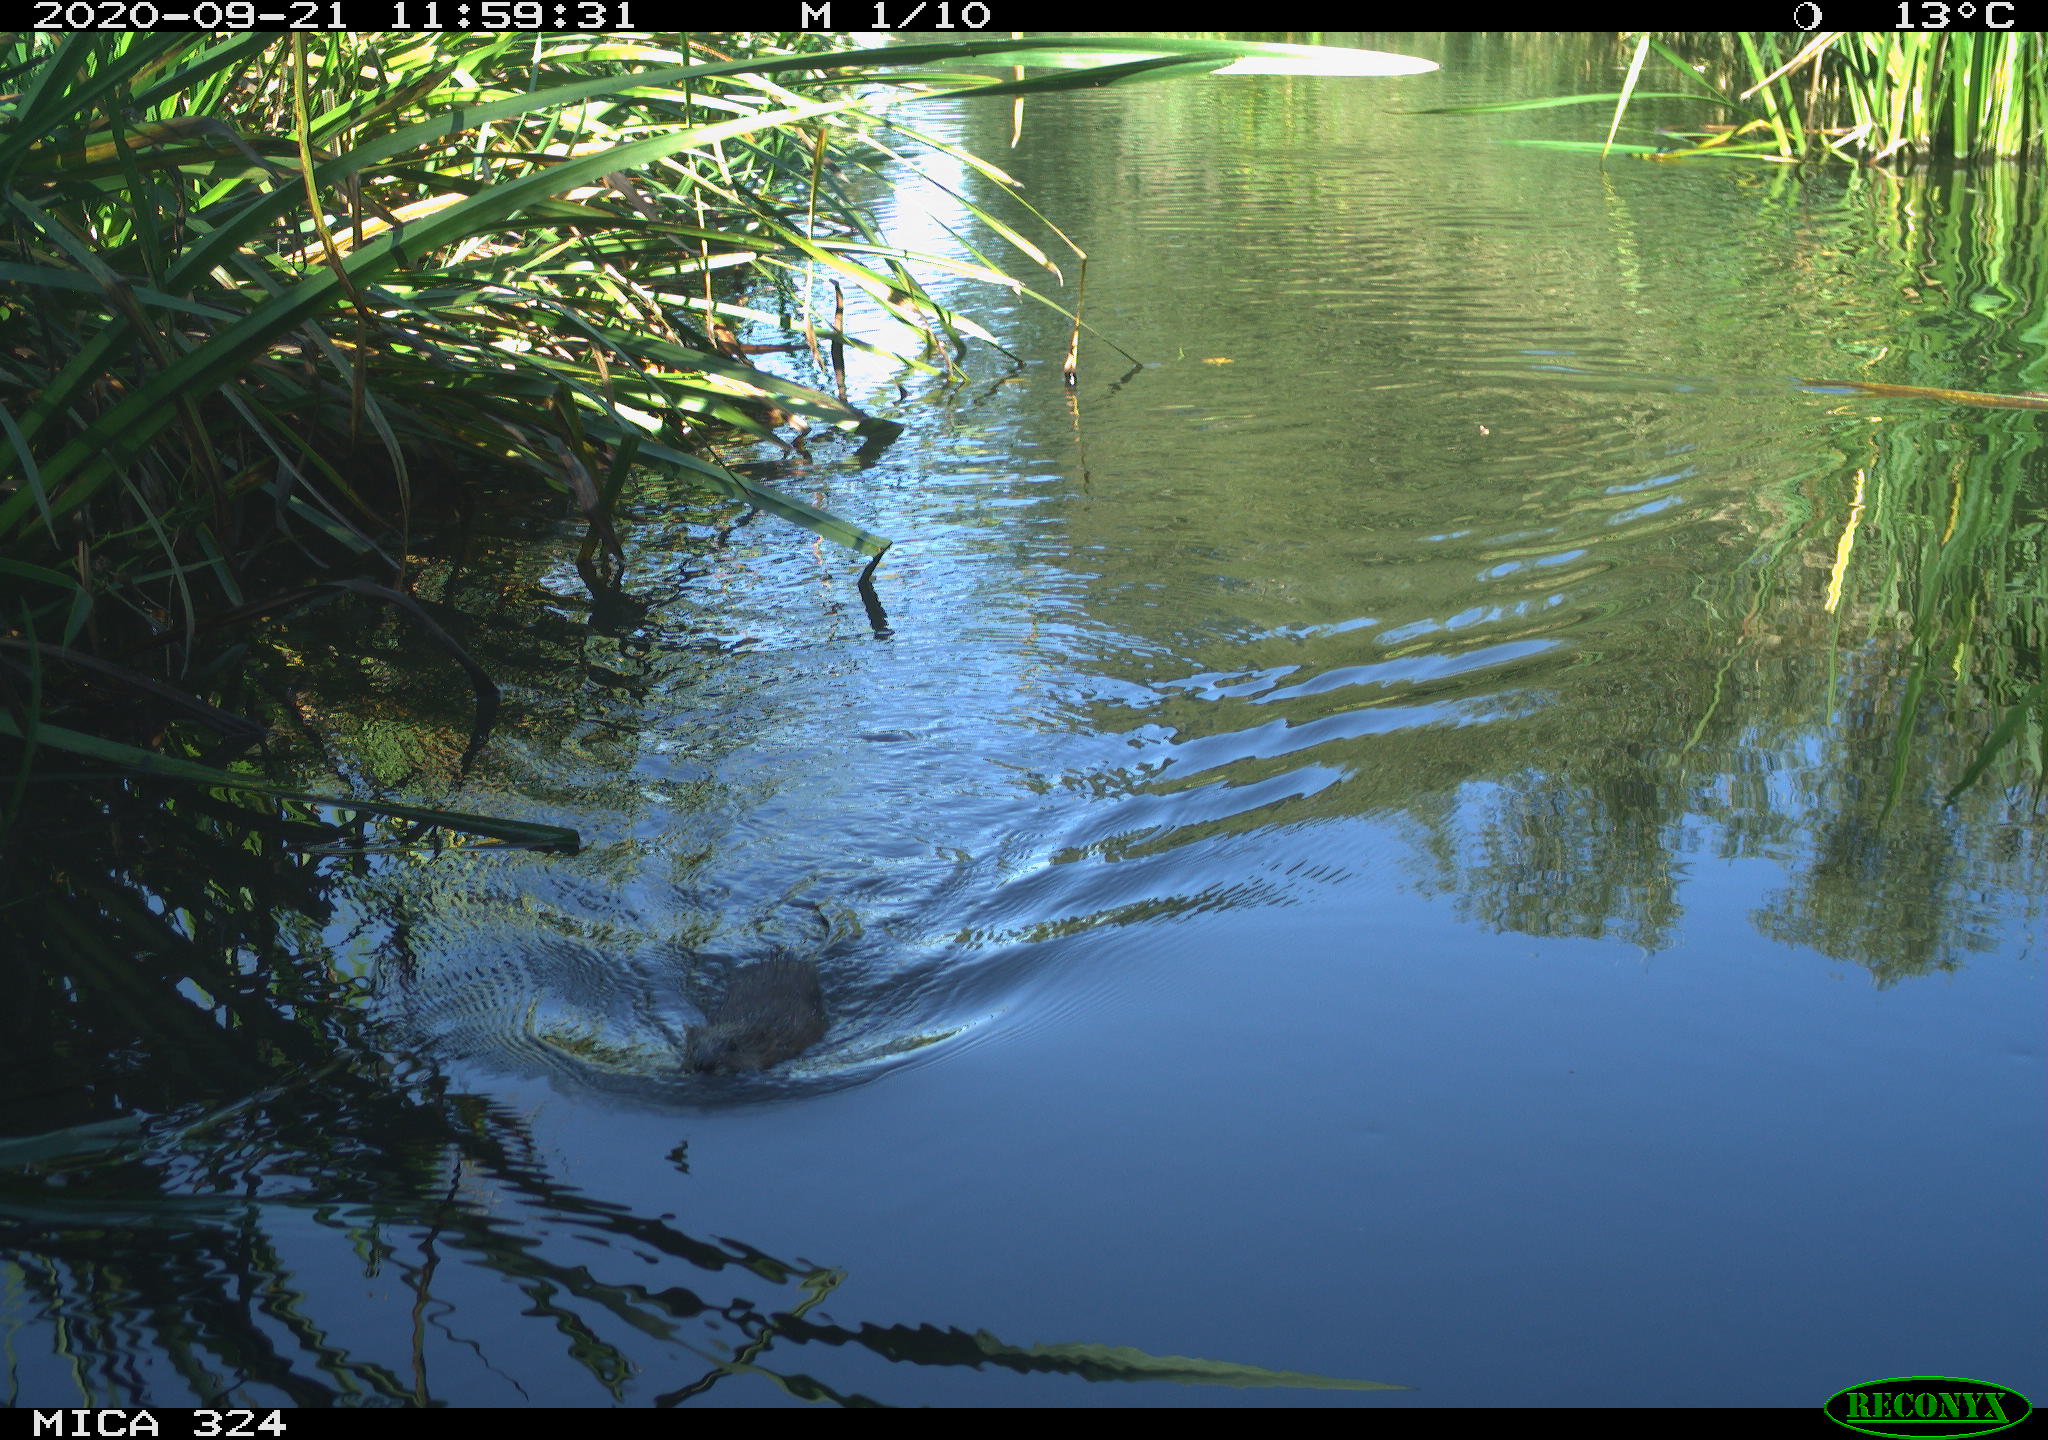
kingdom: Animalia
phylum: Chordata
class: Mammalia
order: Rodentia
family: Cricetidae
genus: Ondatra
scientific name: Ondatra zibethicus
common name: Muskrat
